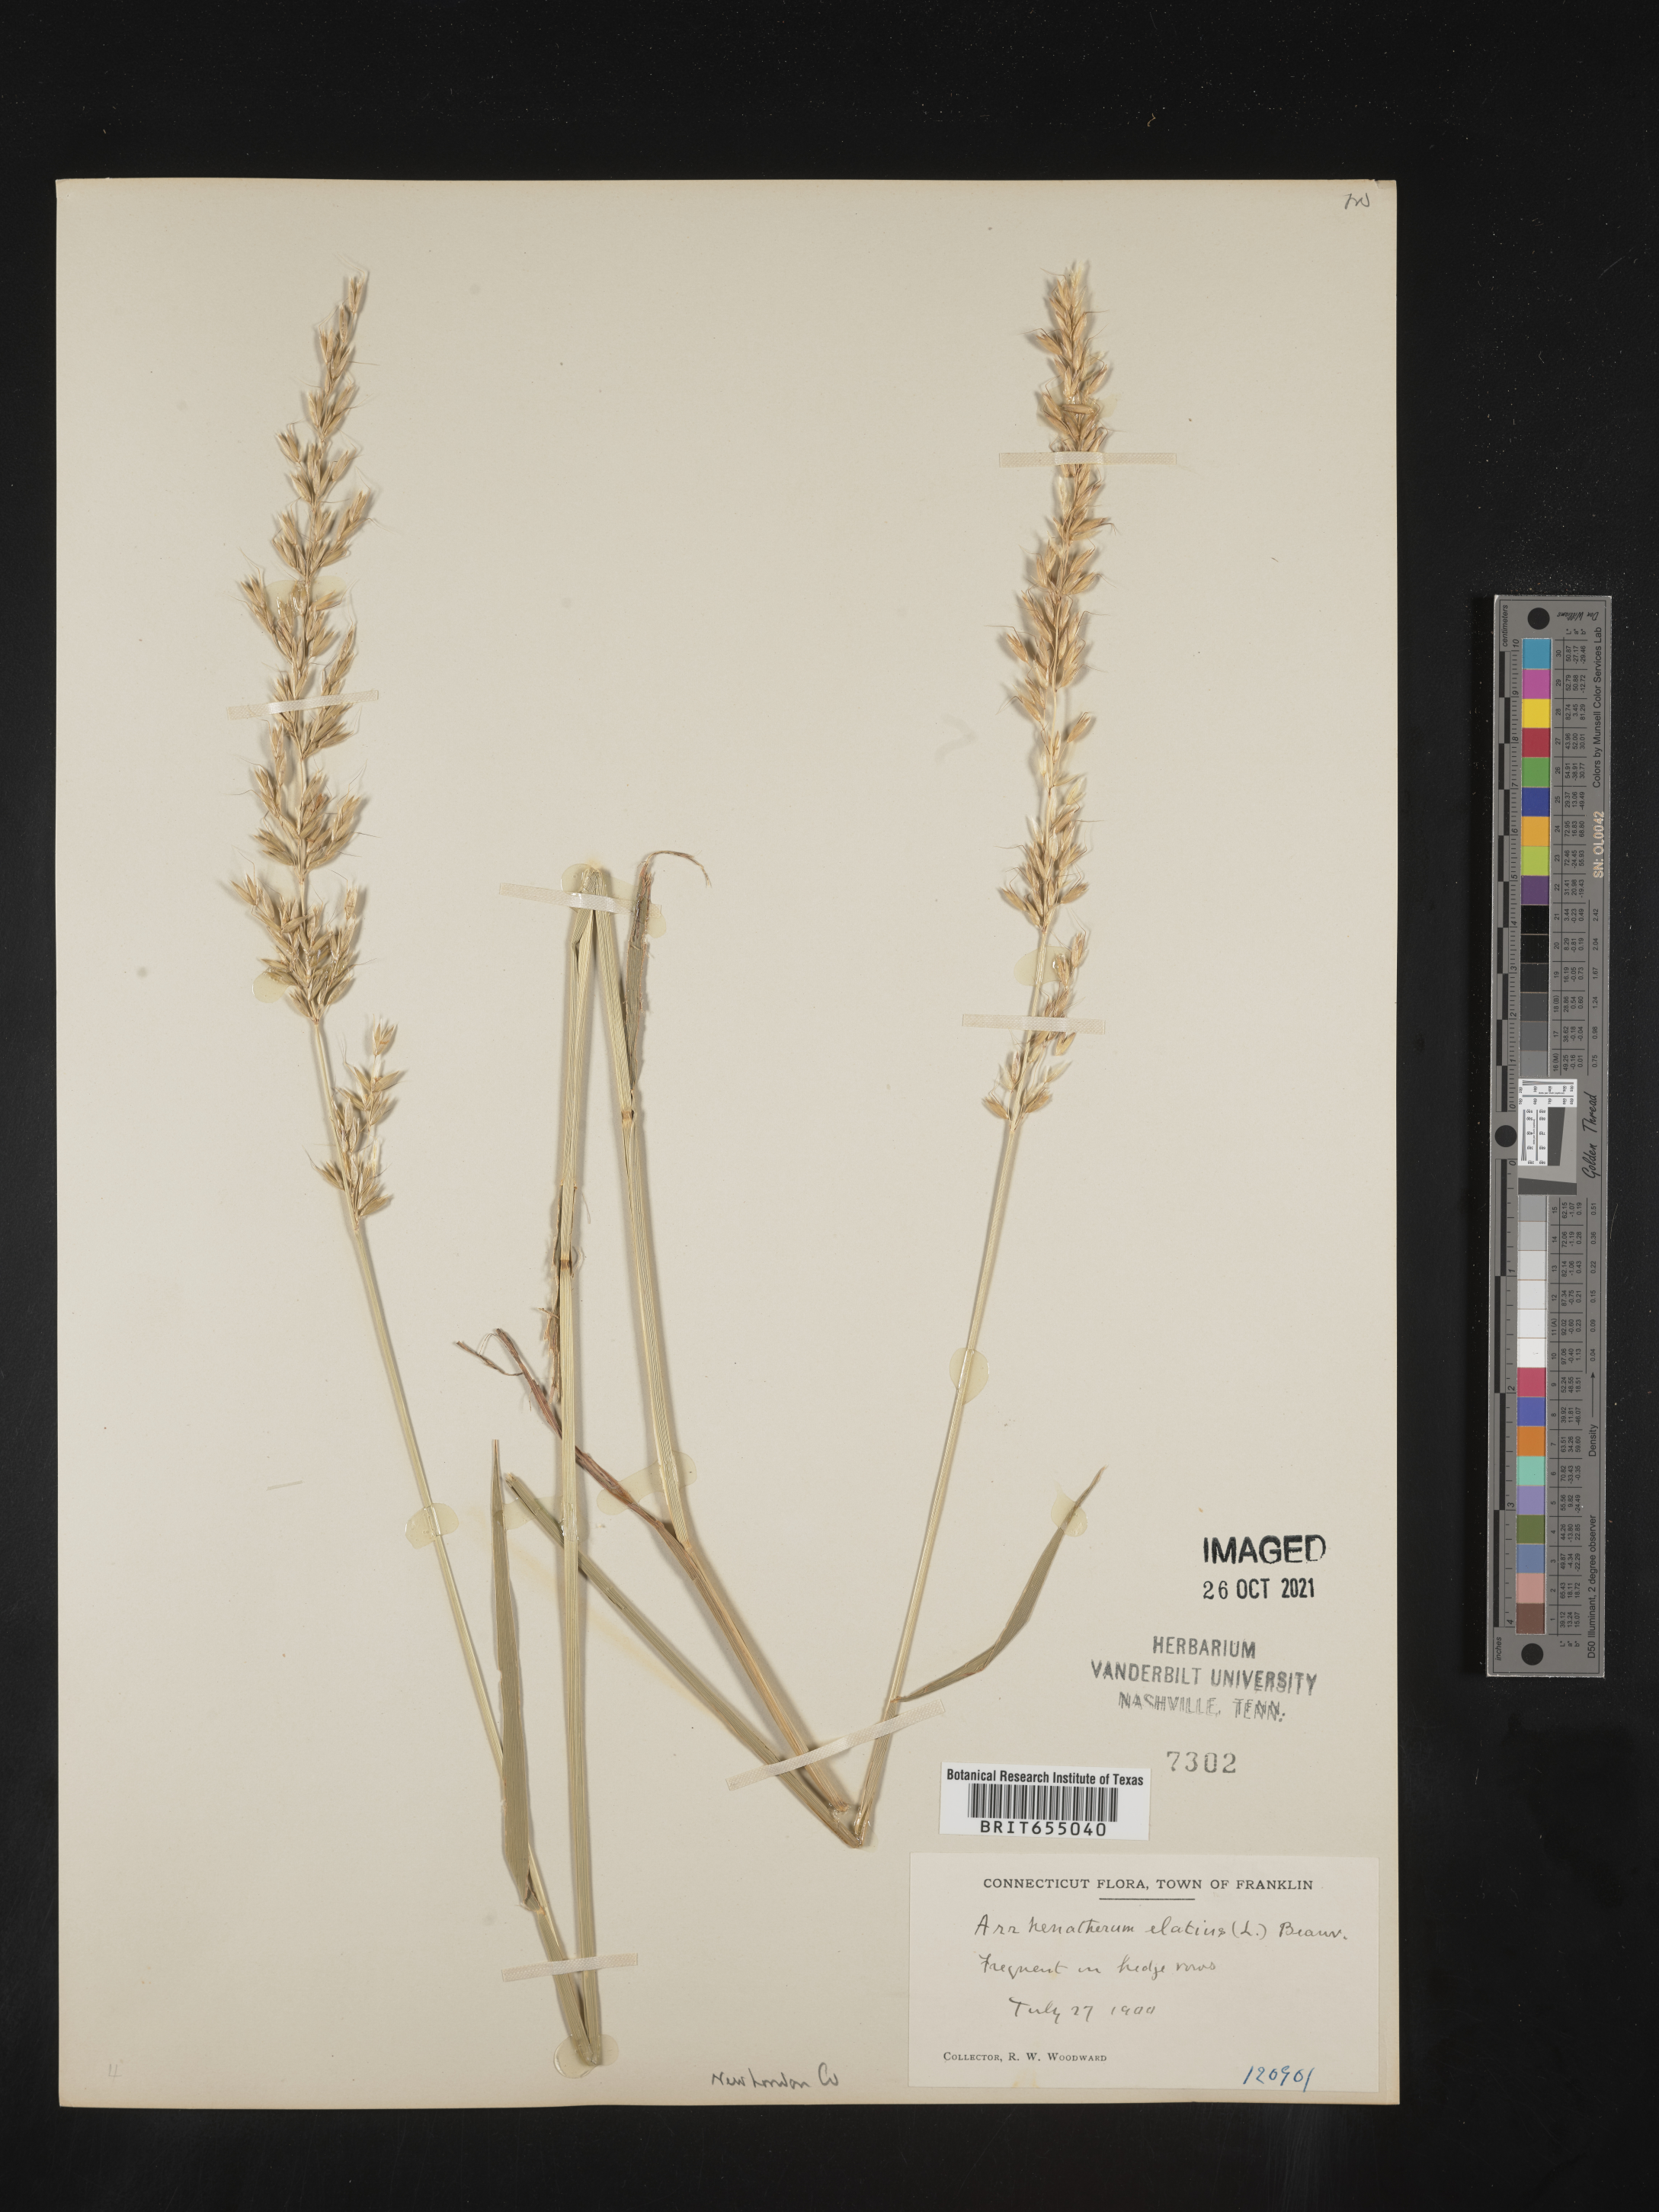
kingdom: Plantae
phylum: Tracheophyta
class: Liliopsida
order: Poales
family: Poaceae
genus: Arrhenatherum
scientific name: Arrhenatherum
